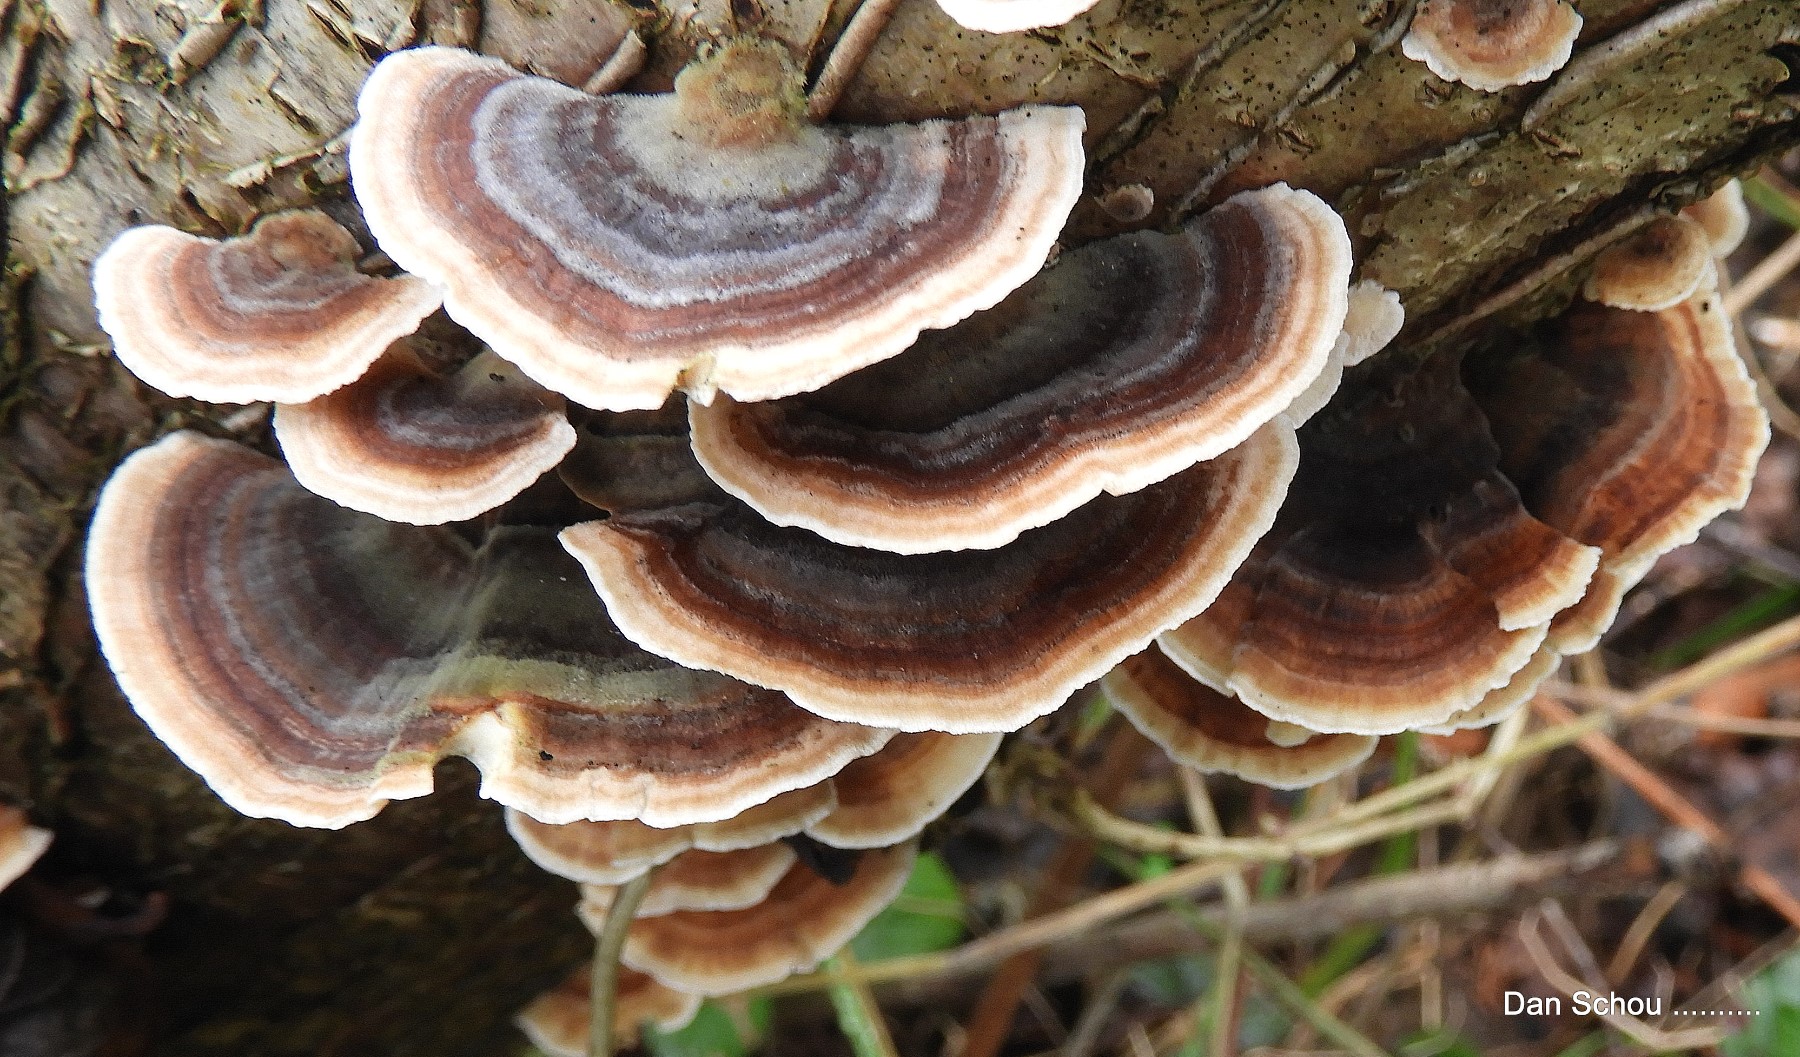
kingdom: Fungi
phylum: Basidiomycota
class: Agaricomycetes
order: Polyporales
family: Polyporaceae
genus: Trametes
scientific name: Trametes versicolor
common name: broget læderporesvamp
